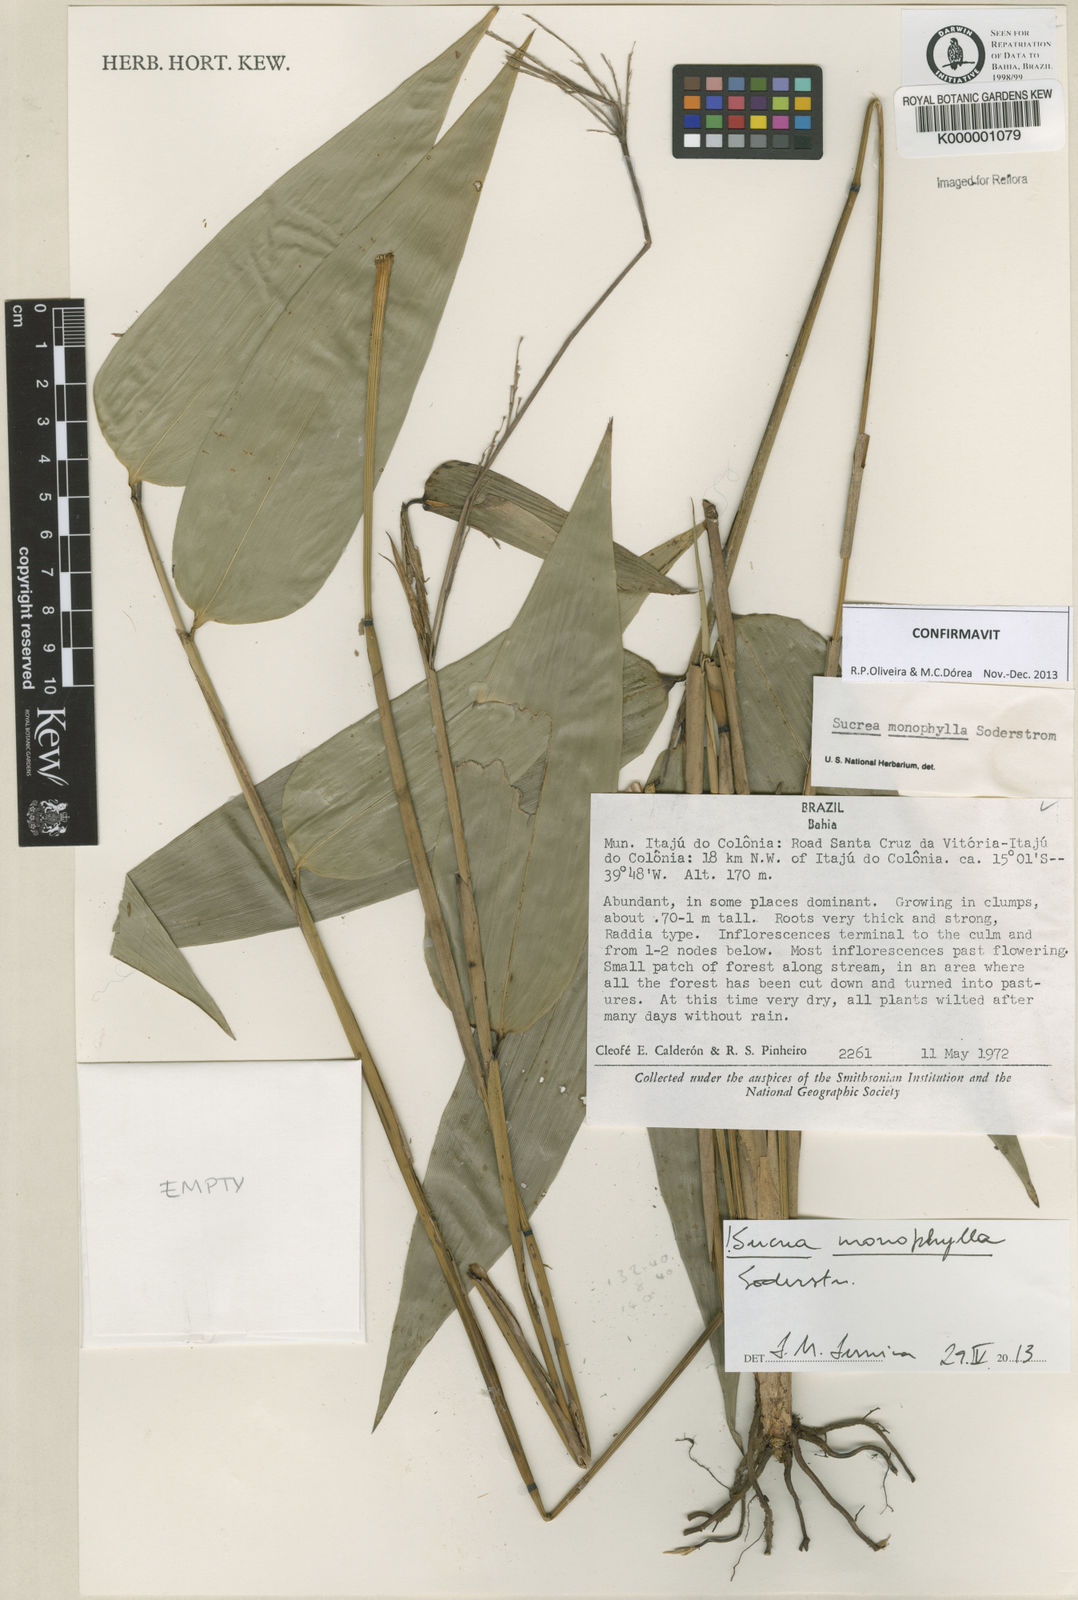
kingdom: Plantae
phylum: Tracheophyta
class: Liliopsida
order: Poales
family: Poaceae
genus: Raddia
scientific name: Raddia monophylla
